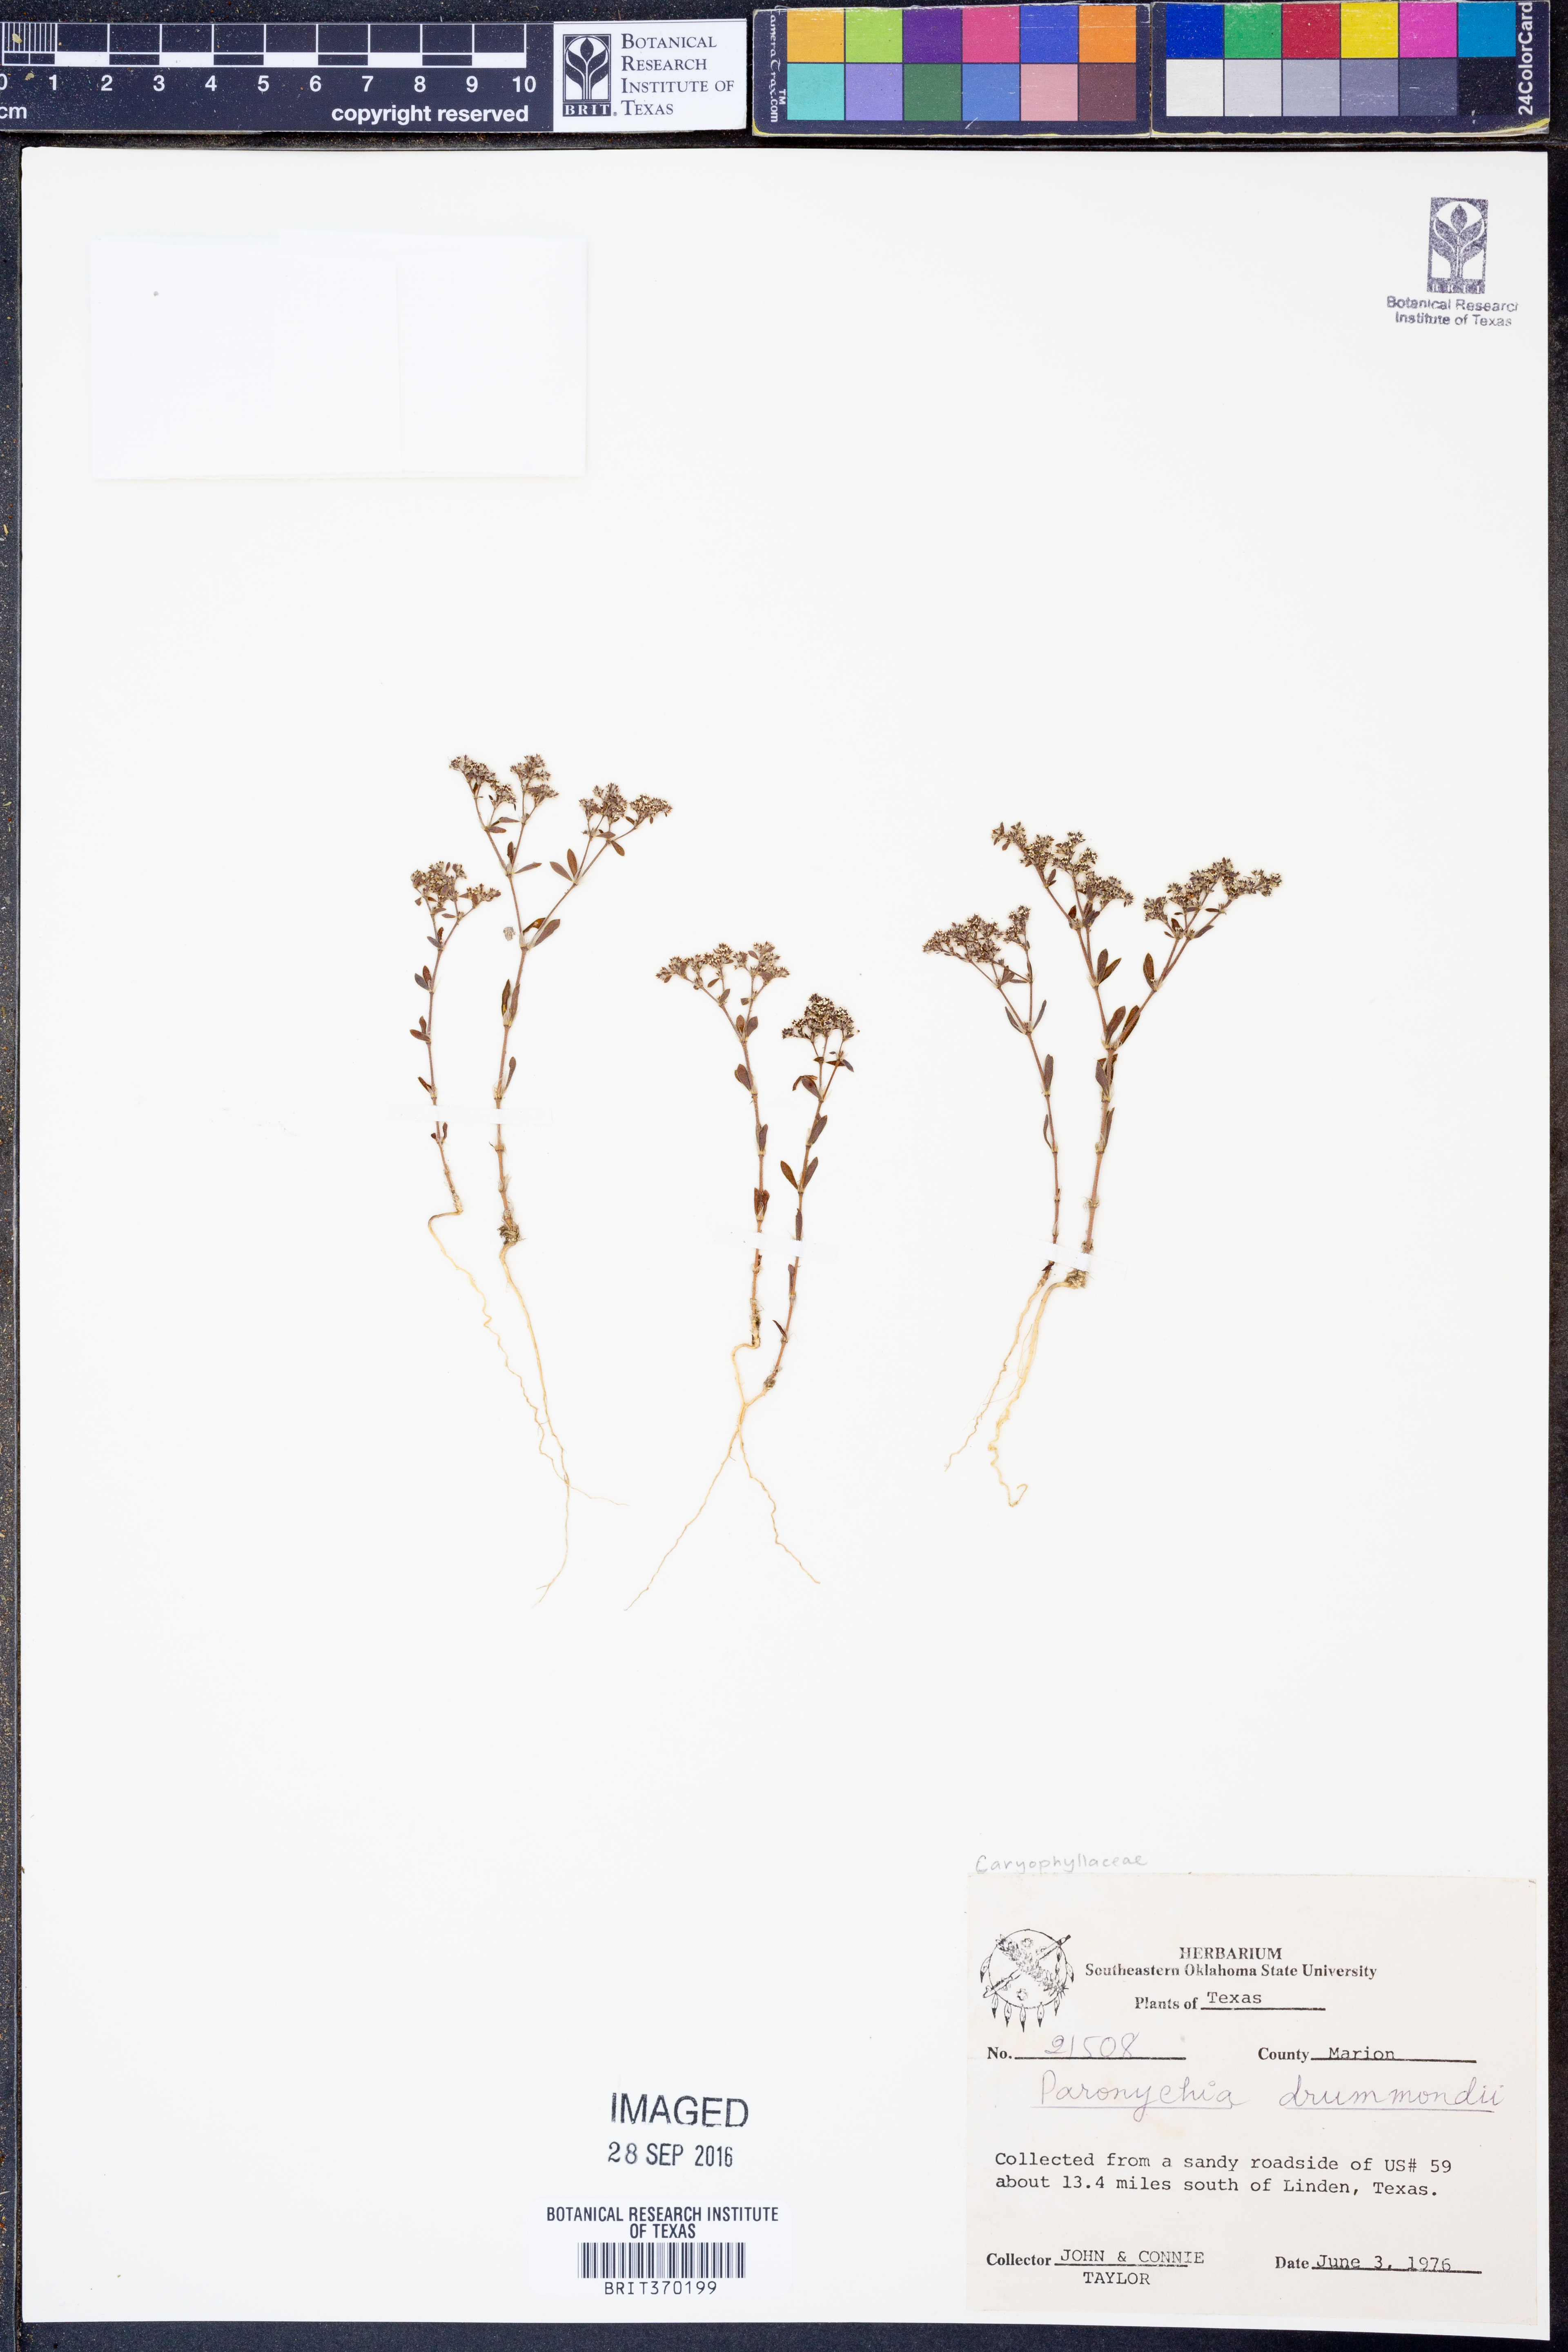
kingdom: Plantae
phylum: Tracheophyta
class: Magnoliopsida
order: Caryophyllales
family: Caryophyllaceae
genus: Paronychia
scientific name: Paronychia drummondii
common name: Drummond's nailwort
